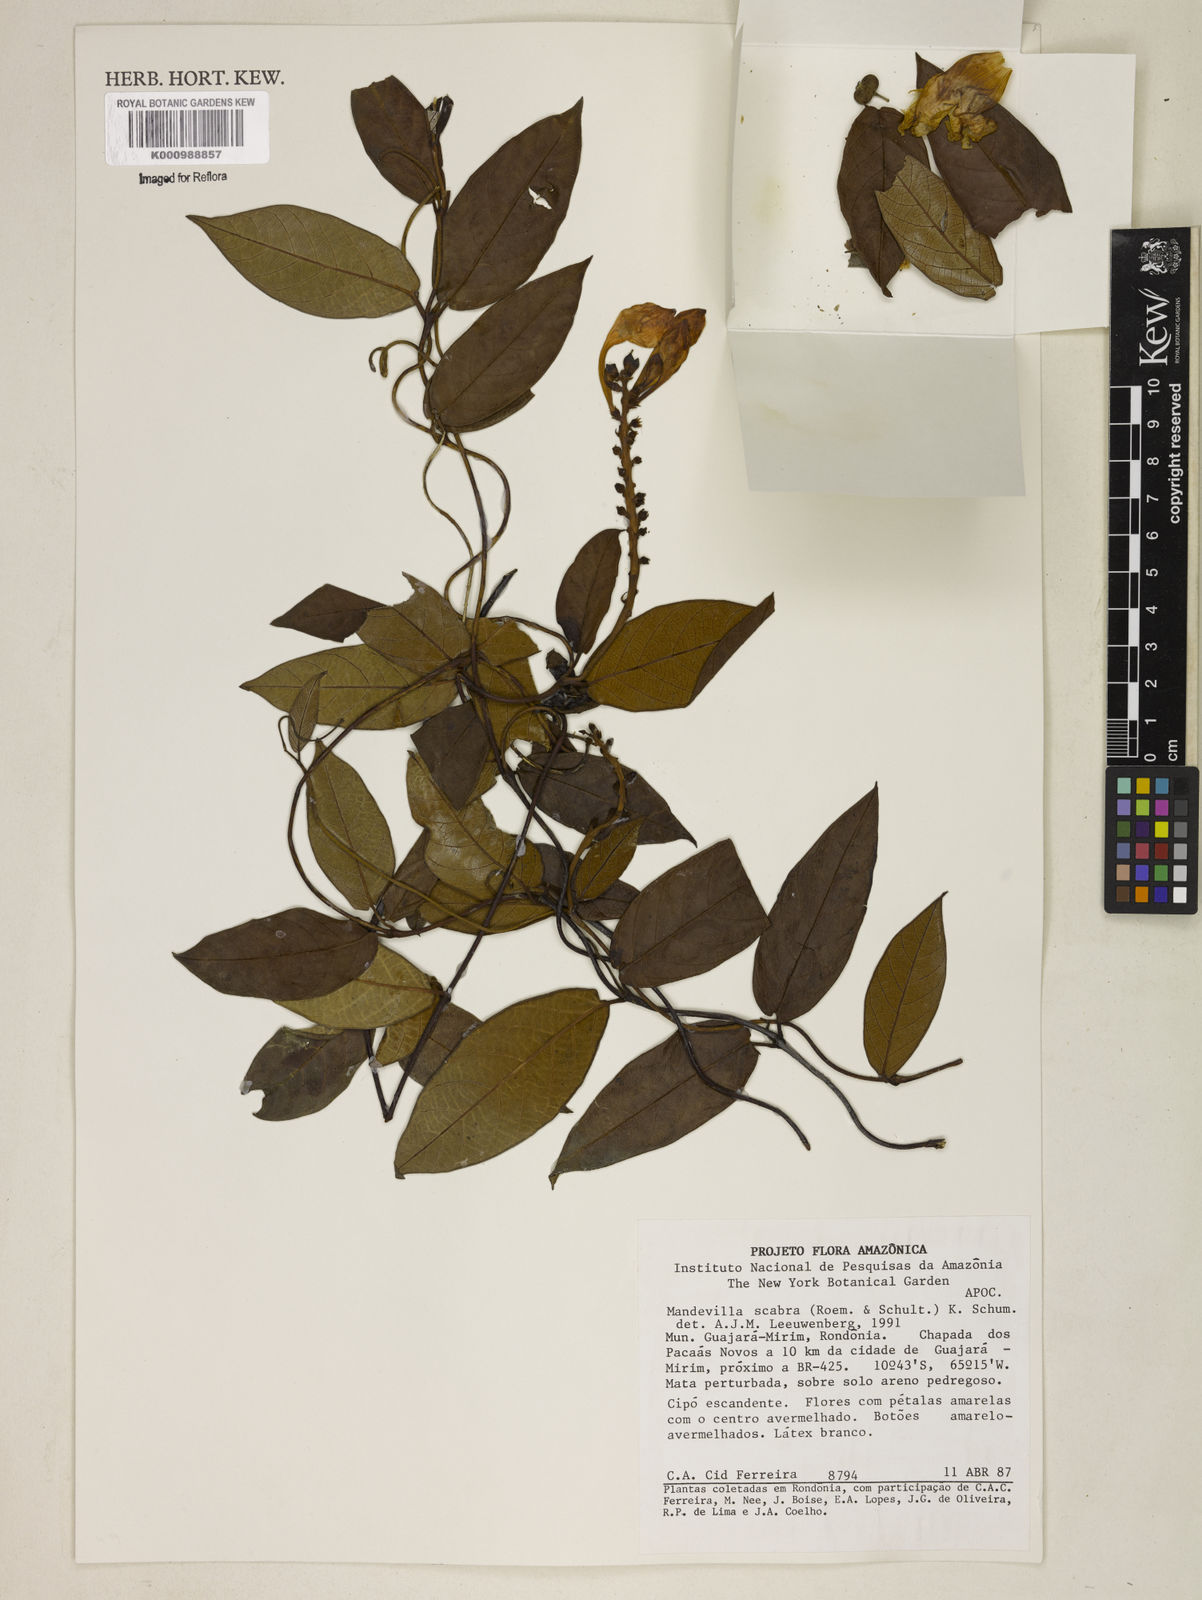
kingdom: Plantae
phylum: Tracheophyta
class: Magnoliopsida
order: Gentianales
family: Apocynaceae
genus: Mandevilla
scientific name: Mandevilla scabra
